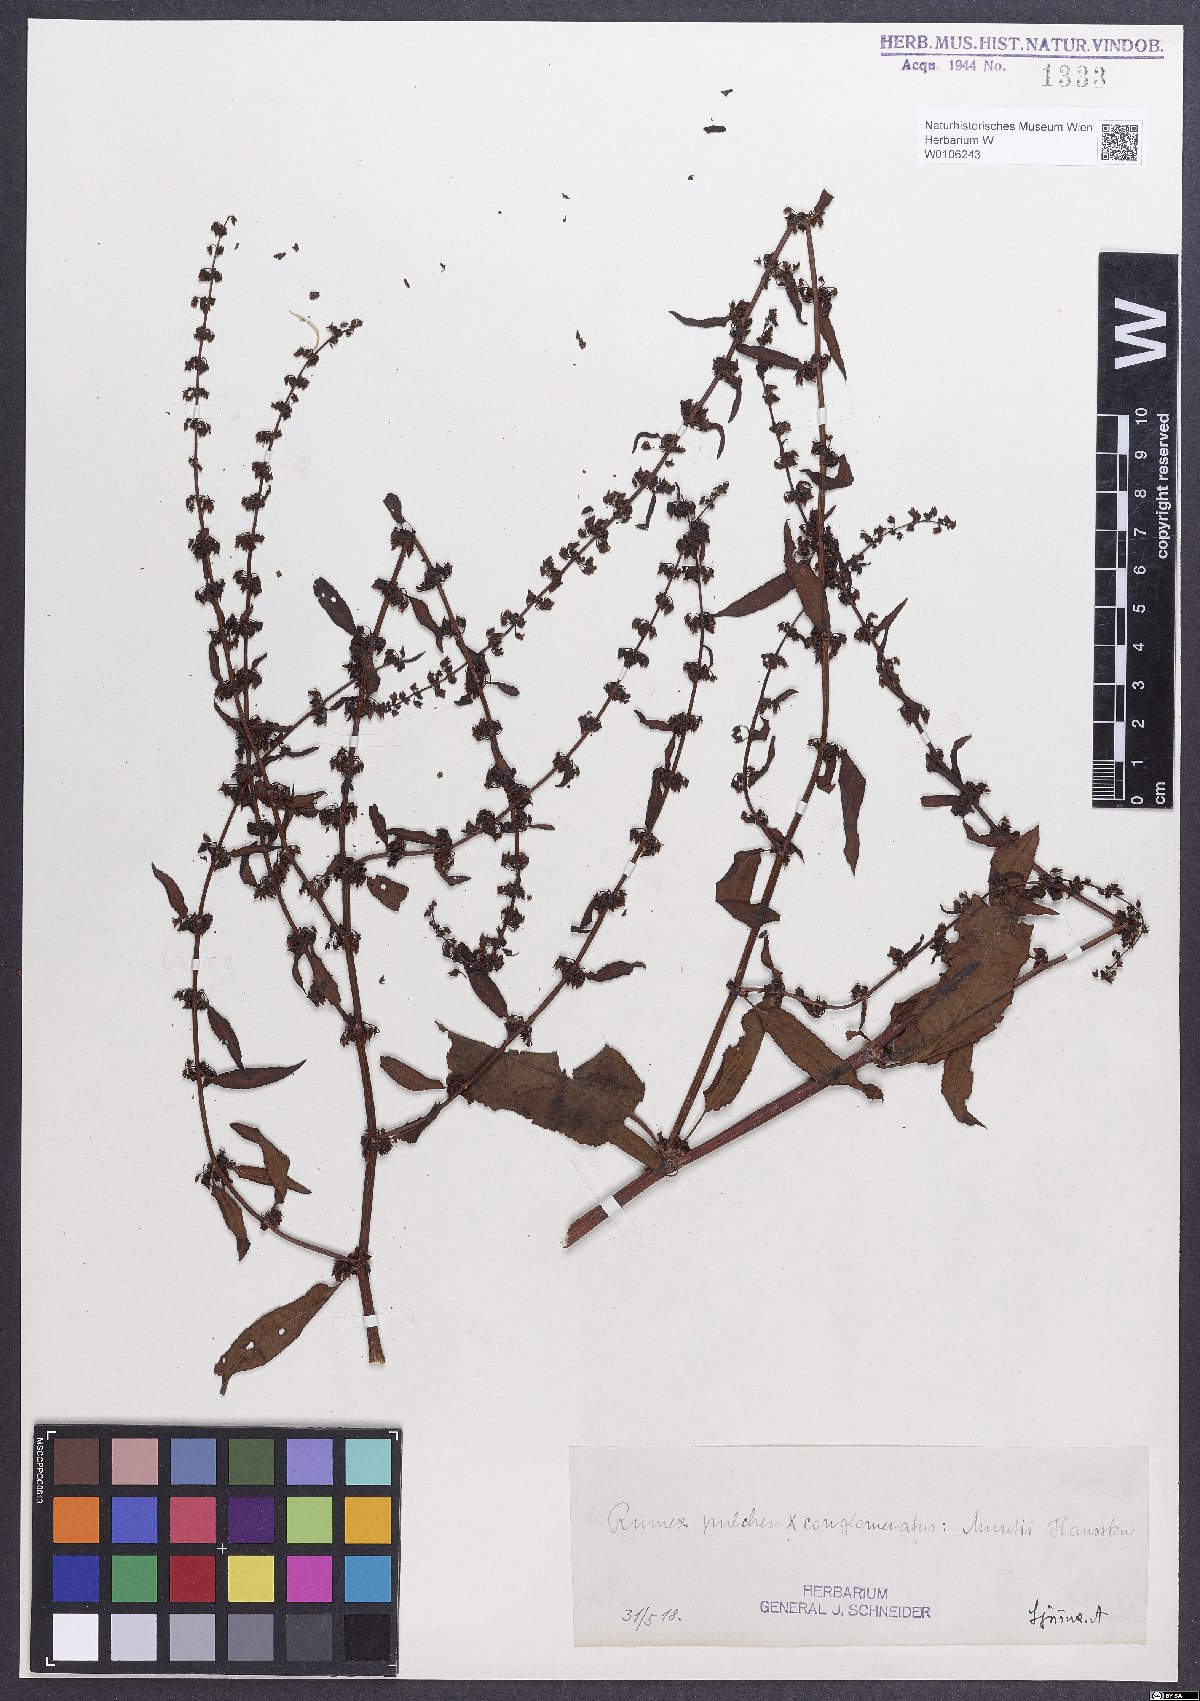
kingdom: Plantae
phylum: Tracheophyta
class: Magnoliopsida
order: Caryophyllales
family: Polygonaceae
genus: Rumex
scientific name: Rumex
